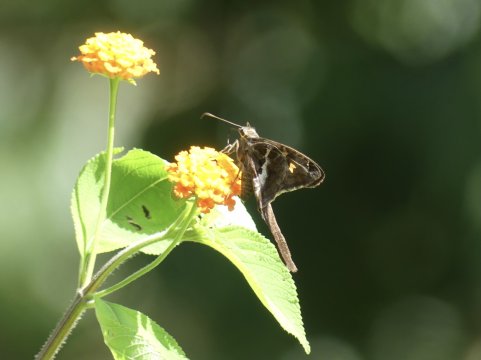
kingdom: Animalia
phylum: Arthropoda
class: Insecta
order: Lepidoptera
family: Hesperiidae
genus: Chioides
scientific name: Chioides catillus
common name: Blurry-striped Longtail
